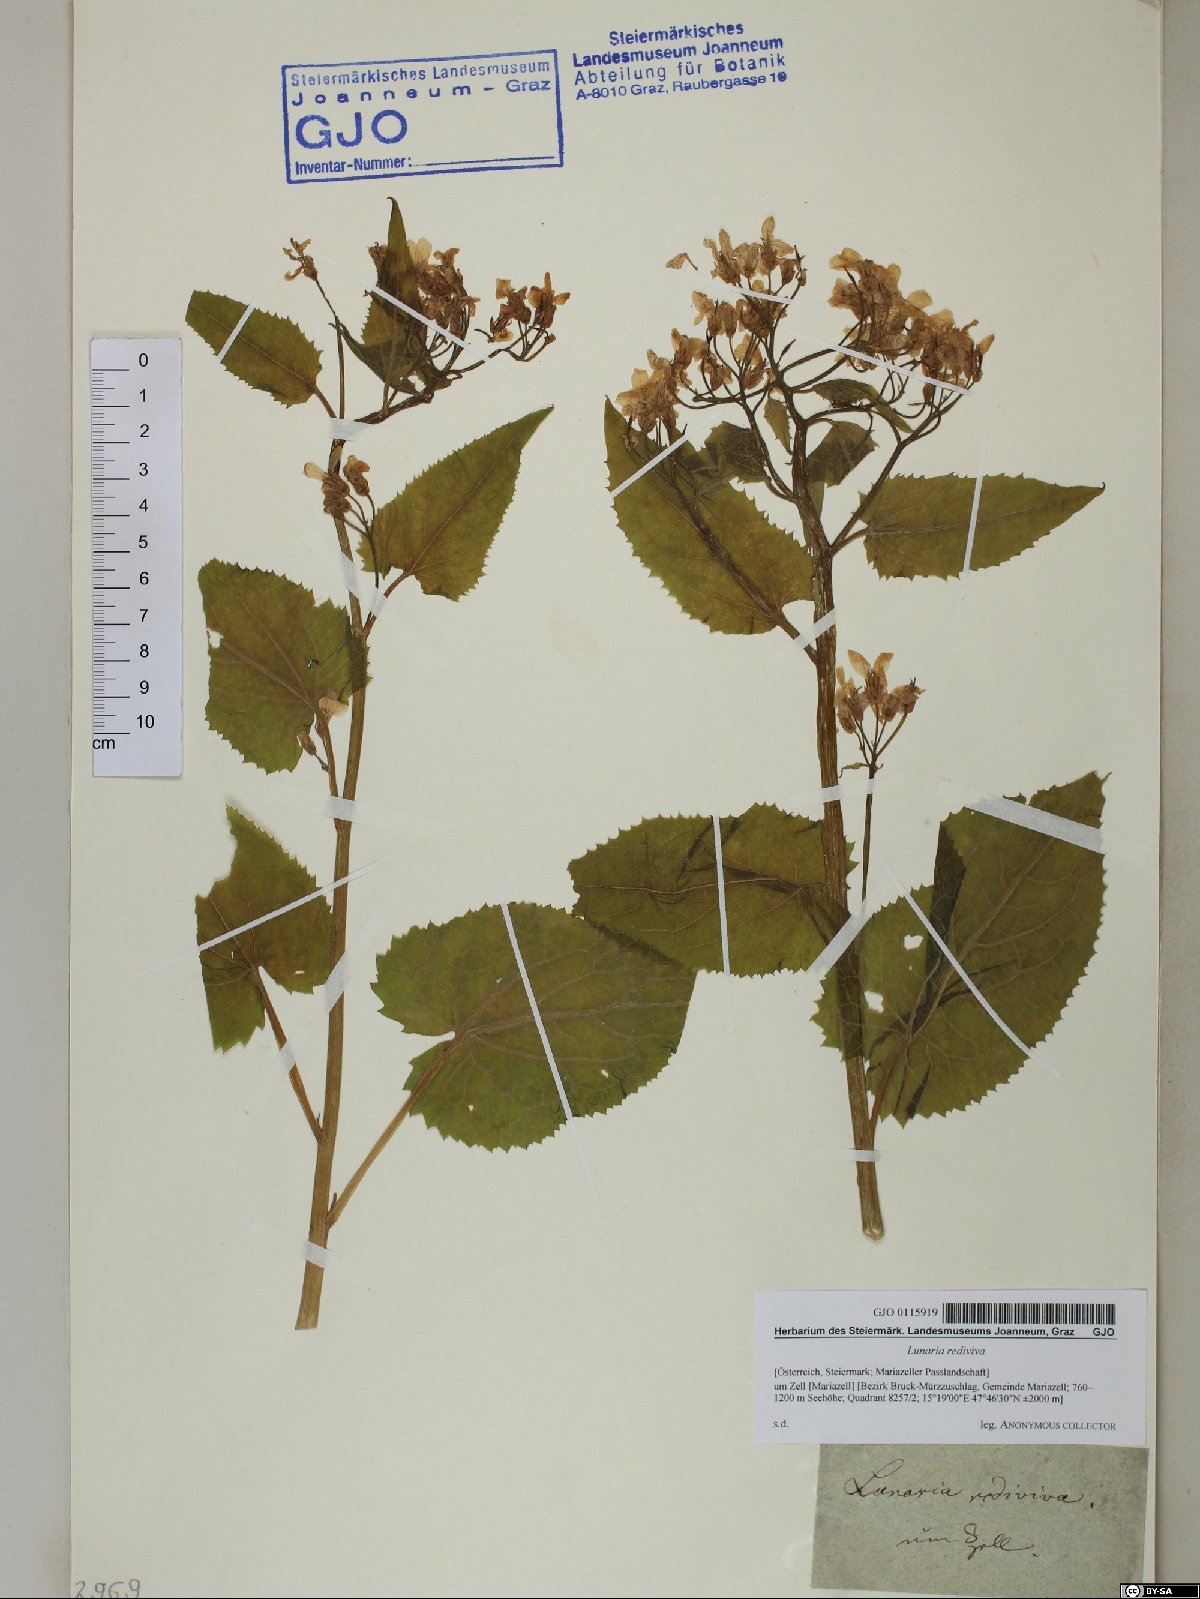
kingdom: Plantae
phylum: Tracheophyta
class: Magnoliopsida
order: Brassicales
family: Brassicaceae
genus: Lunaria
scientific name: Lunaria rediviva
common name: Perennial honesty
